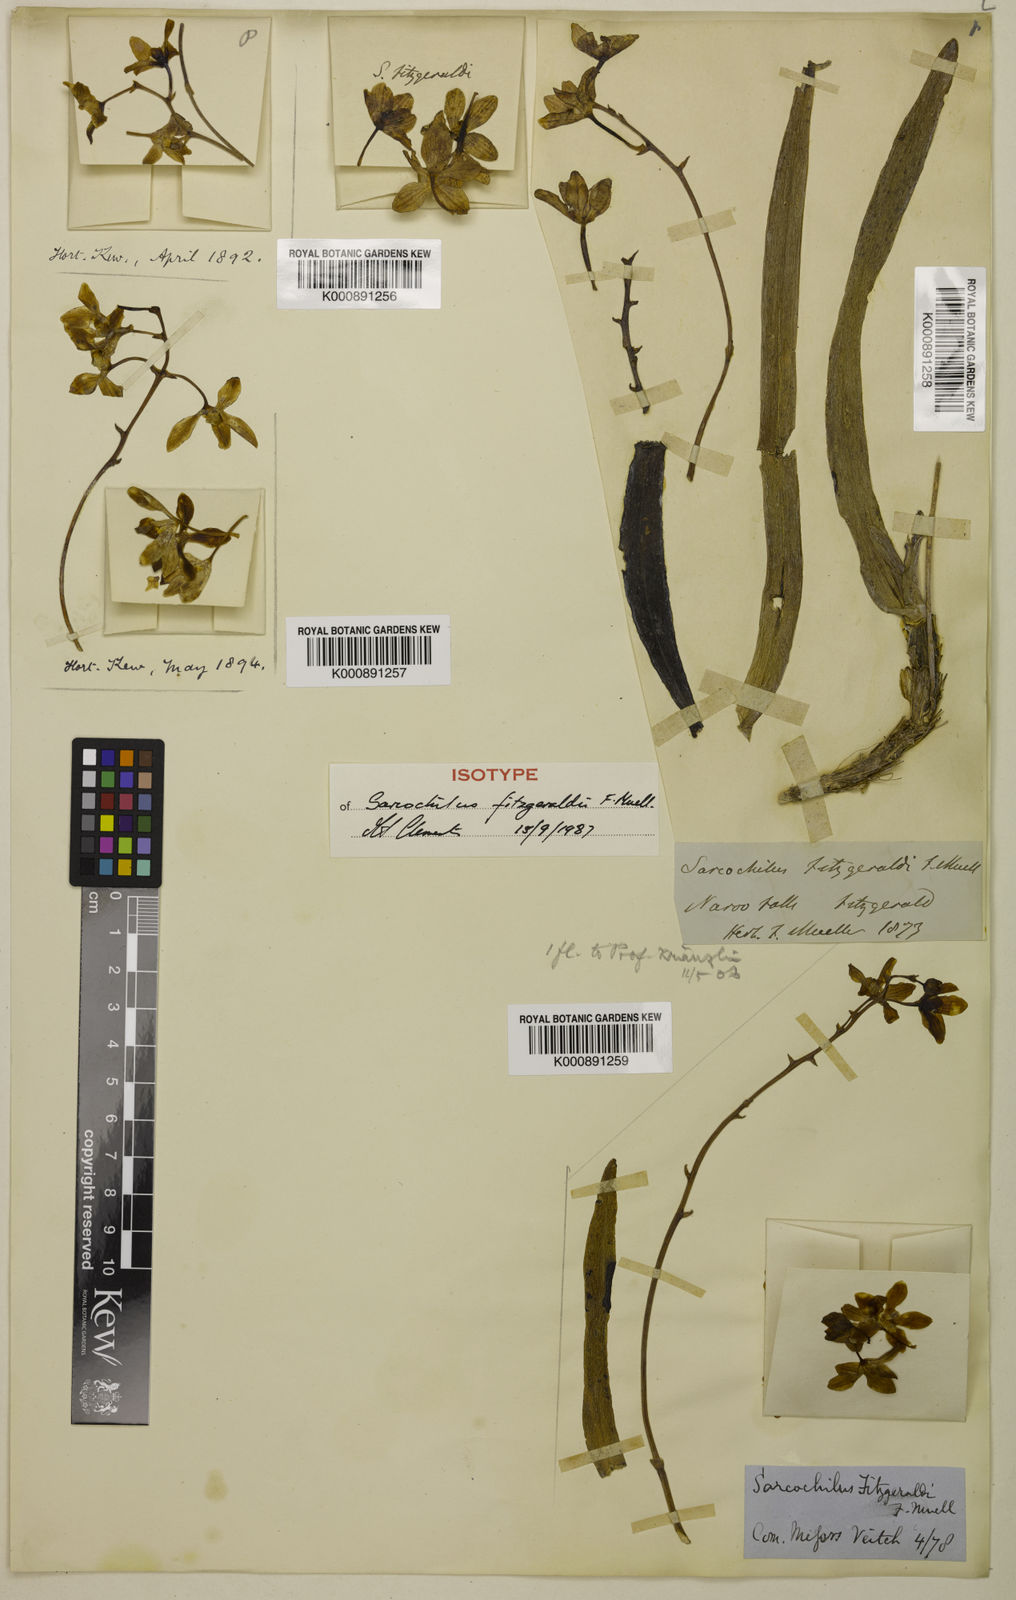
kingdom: Plantae
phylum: Tracheophyta
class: Liliopsida
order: Asparagales
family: Orchidaceae
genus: Sarcochilus
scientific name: Sarcochilus fitzgeraldii
